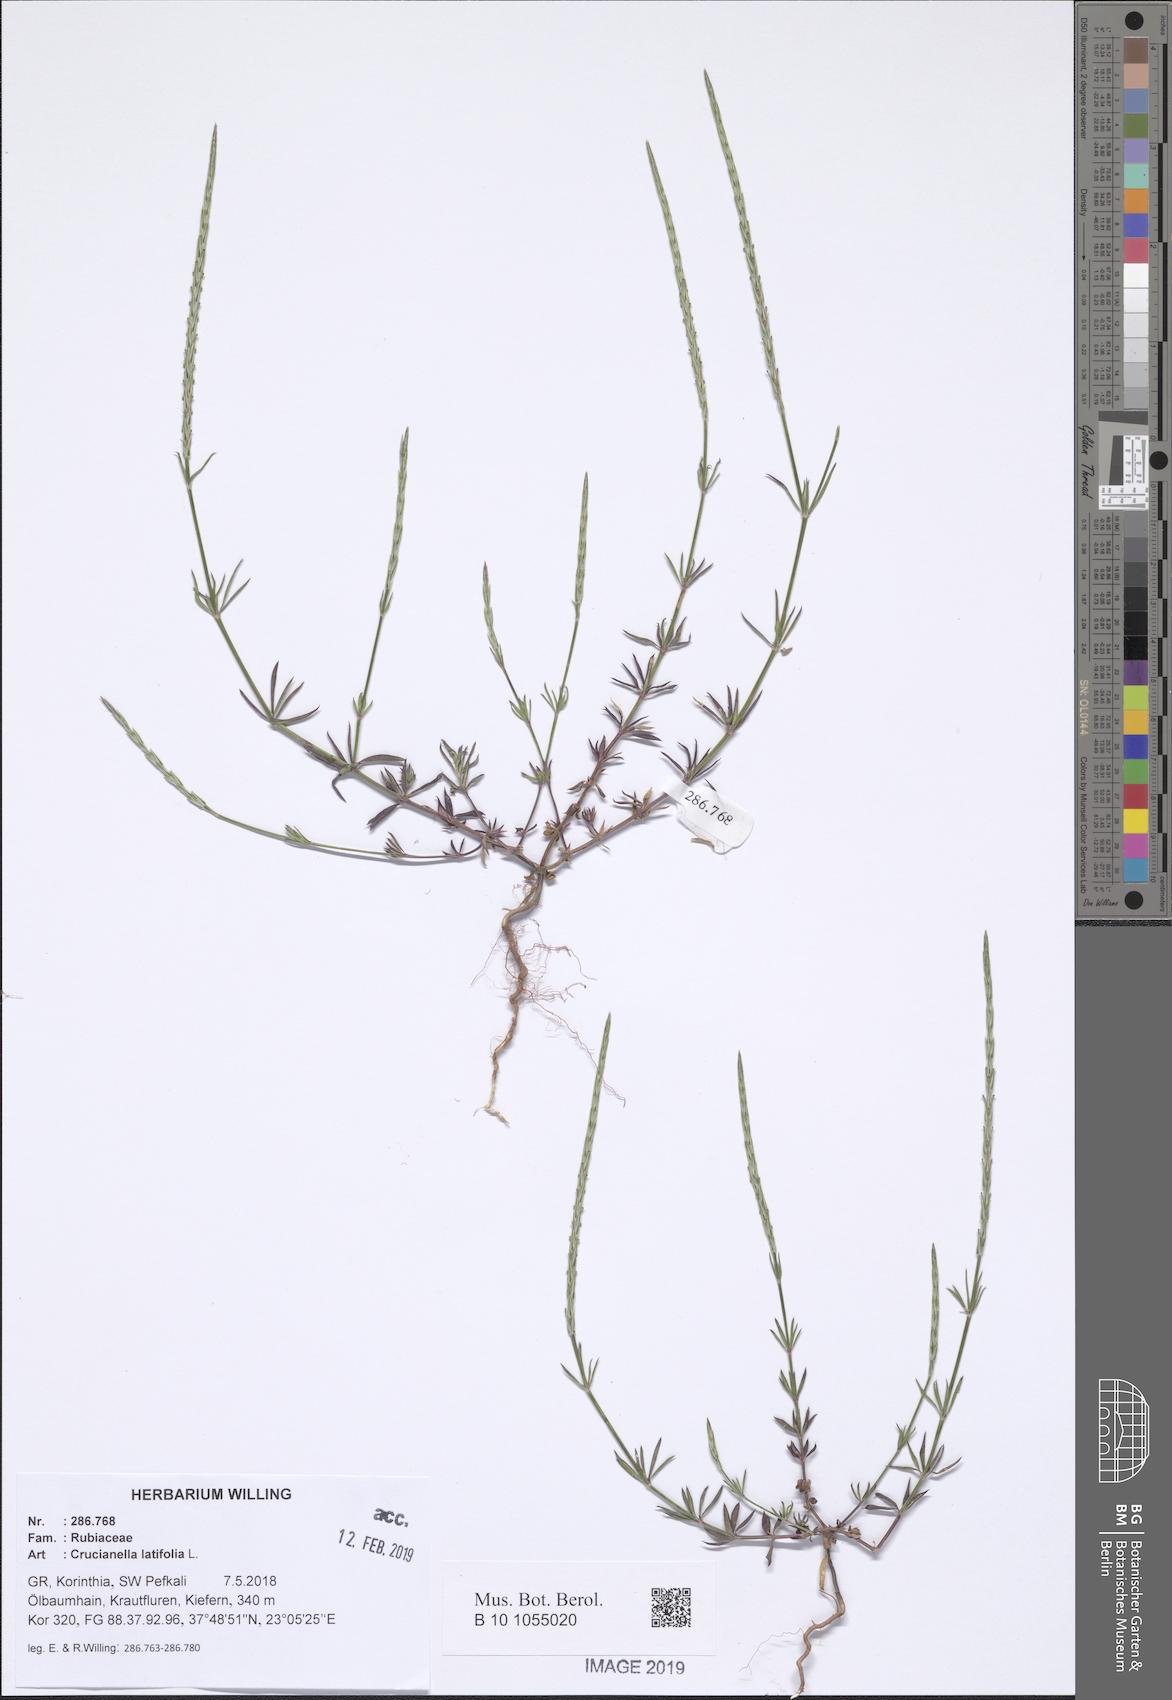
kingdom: Plantae
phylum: Tracheophyta
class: Magnoliopsida
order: Gentianales
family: Rubiaceae
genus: Crucianella
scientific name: Crucianella latifolia
